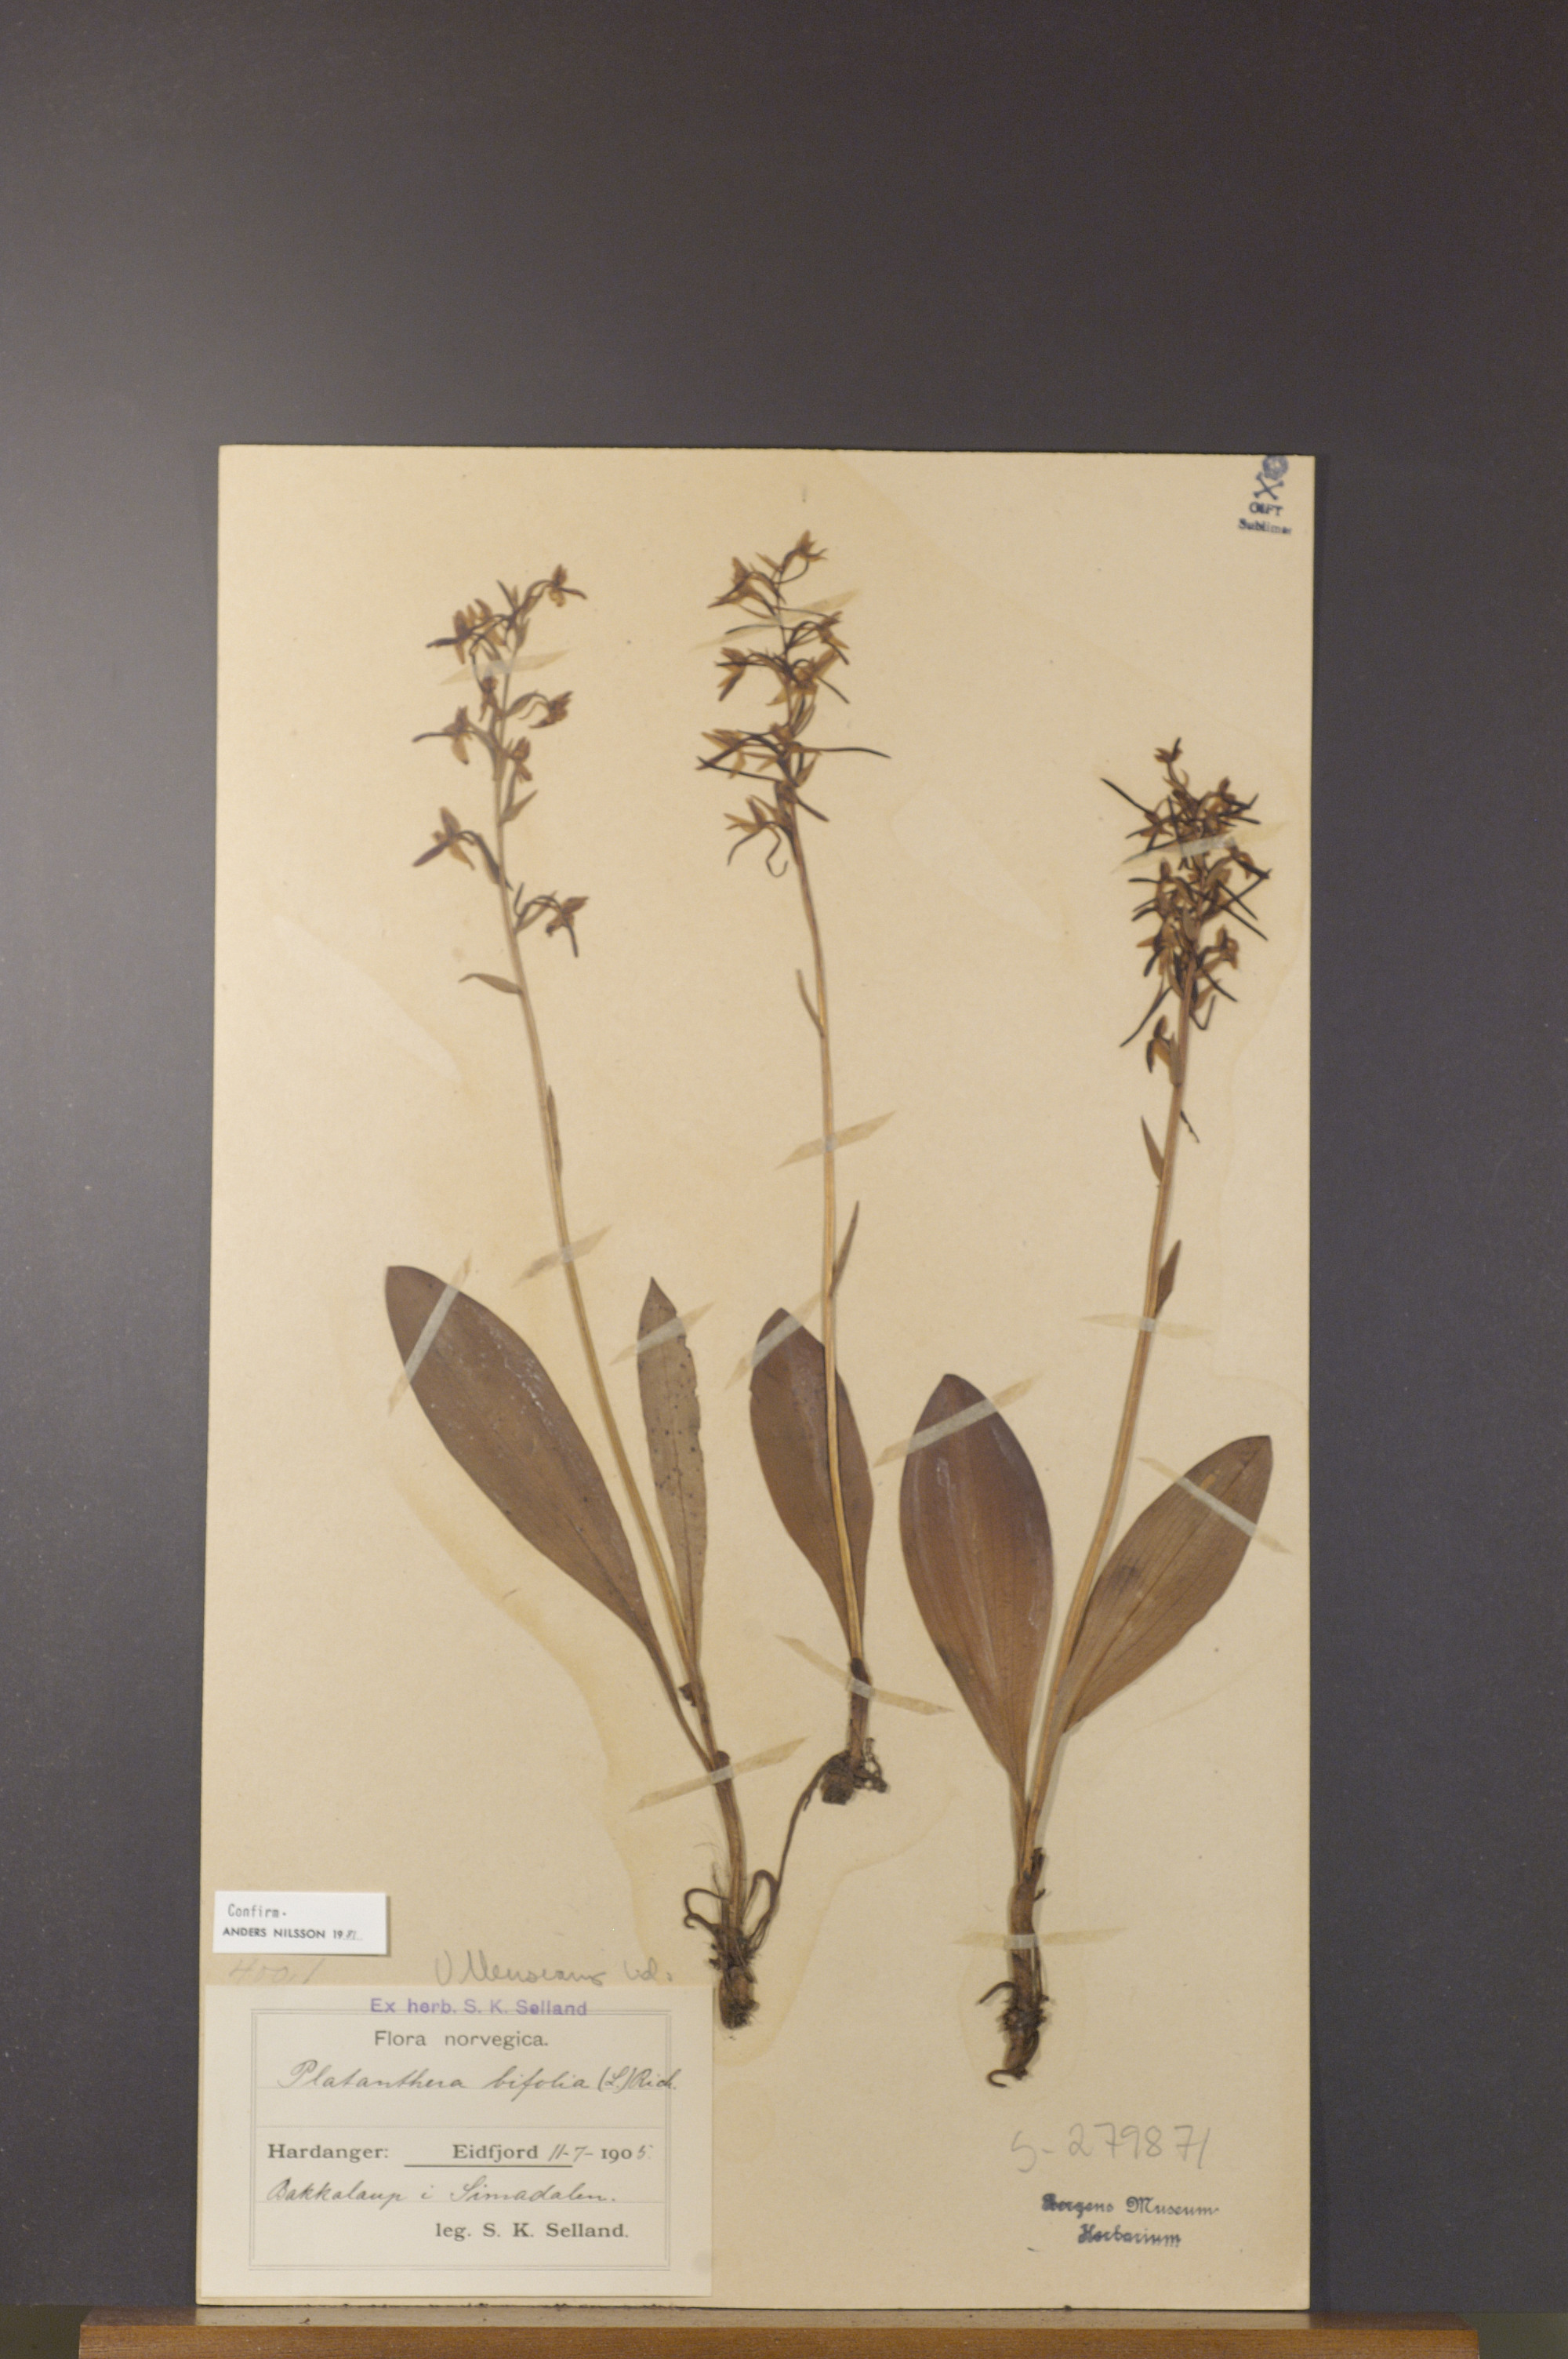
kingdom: Plantae
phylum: Tracheophyta
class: Liliopsida
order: Asparagales
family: Orchidaceae
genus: Platanthera
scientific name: Platanthera bifolia
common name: Lesser butterfly-orchid
